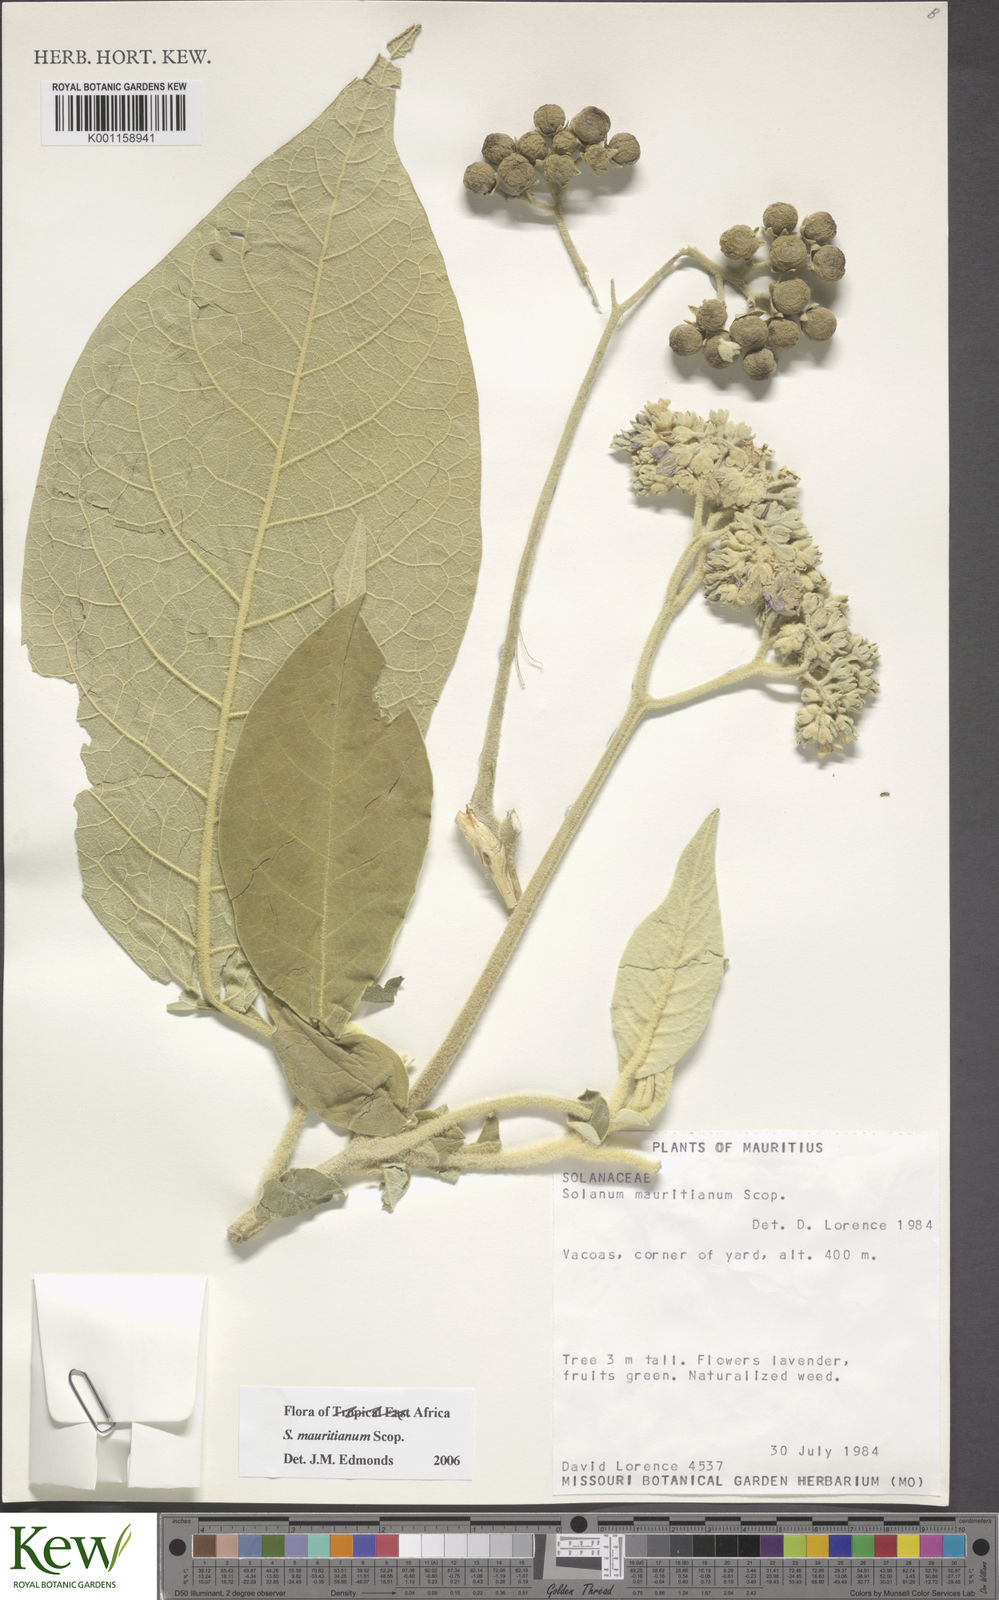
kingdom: Plantae
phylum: Tracheophyta
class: Magnoliopsida
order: Solanales
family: Solanaceae
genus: Solanum
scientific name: Solanum mauritianum
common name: Earleaf nightshade
